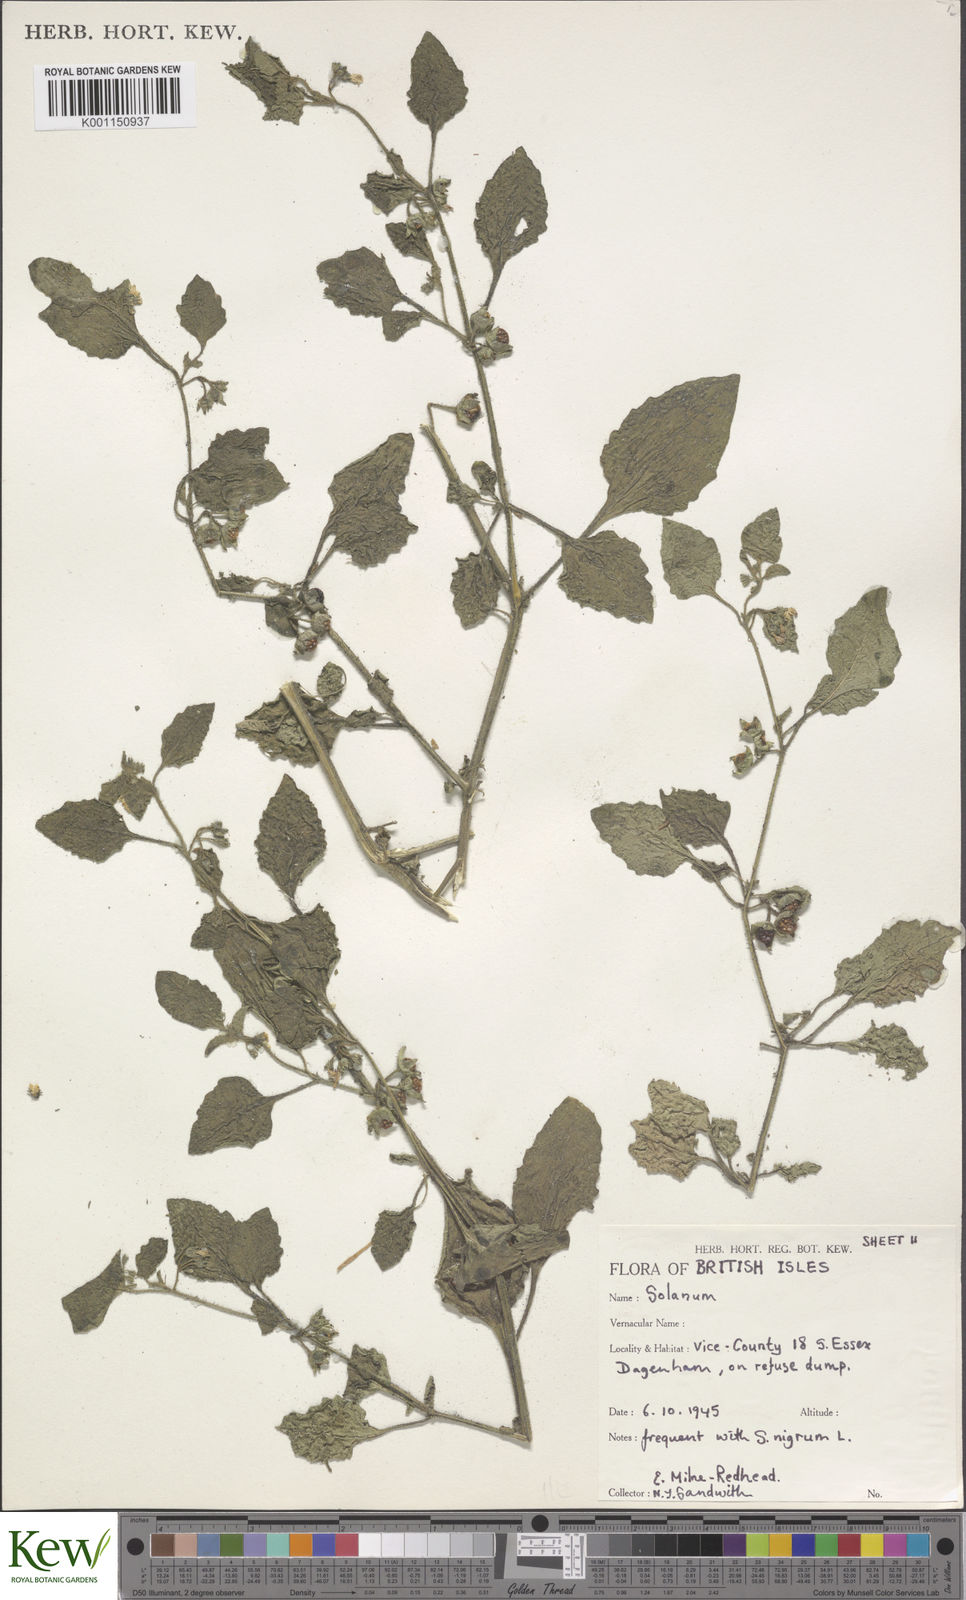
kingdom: Plantae
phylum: Tracheophyta
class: Magnoliopsida
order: Solanales
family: Solanaceae
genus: Solanum
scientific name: Solanum sarrachoides
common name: Leafy-fruited nightshade
